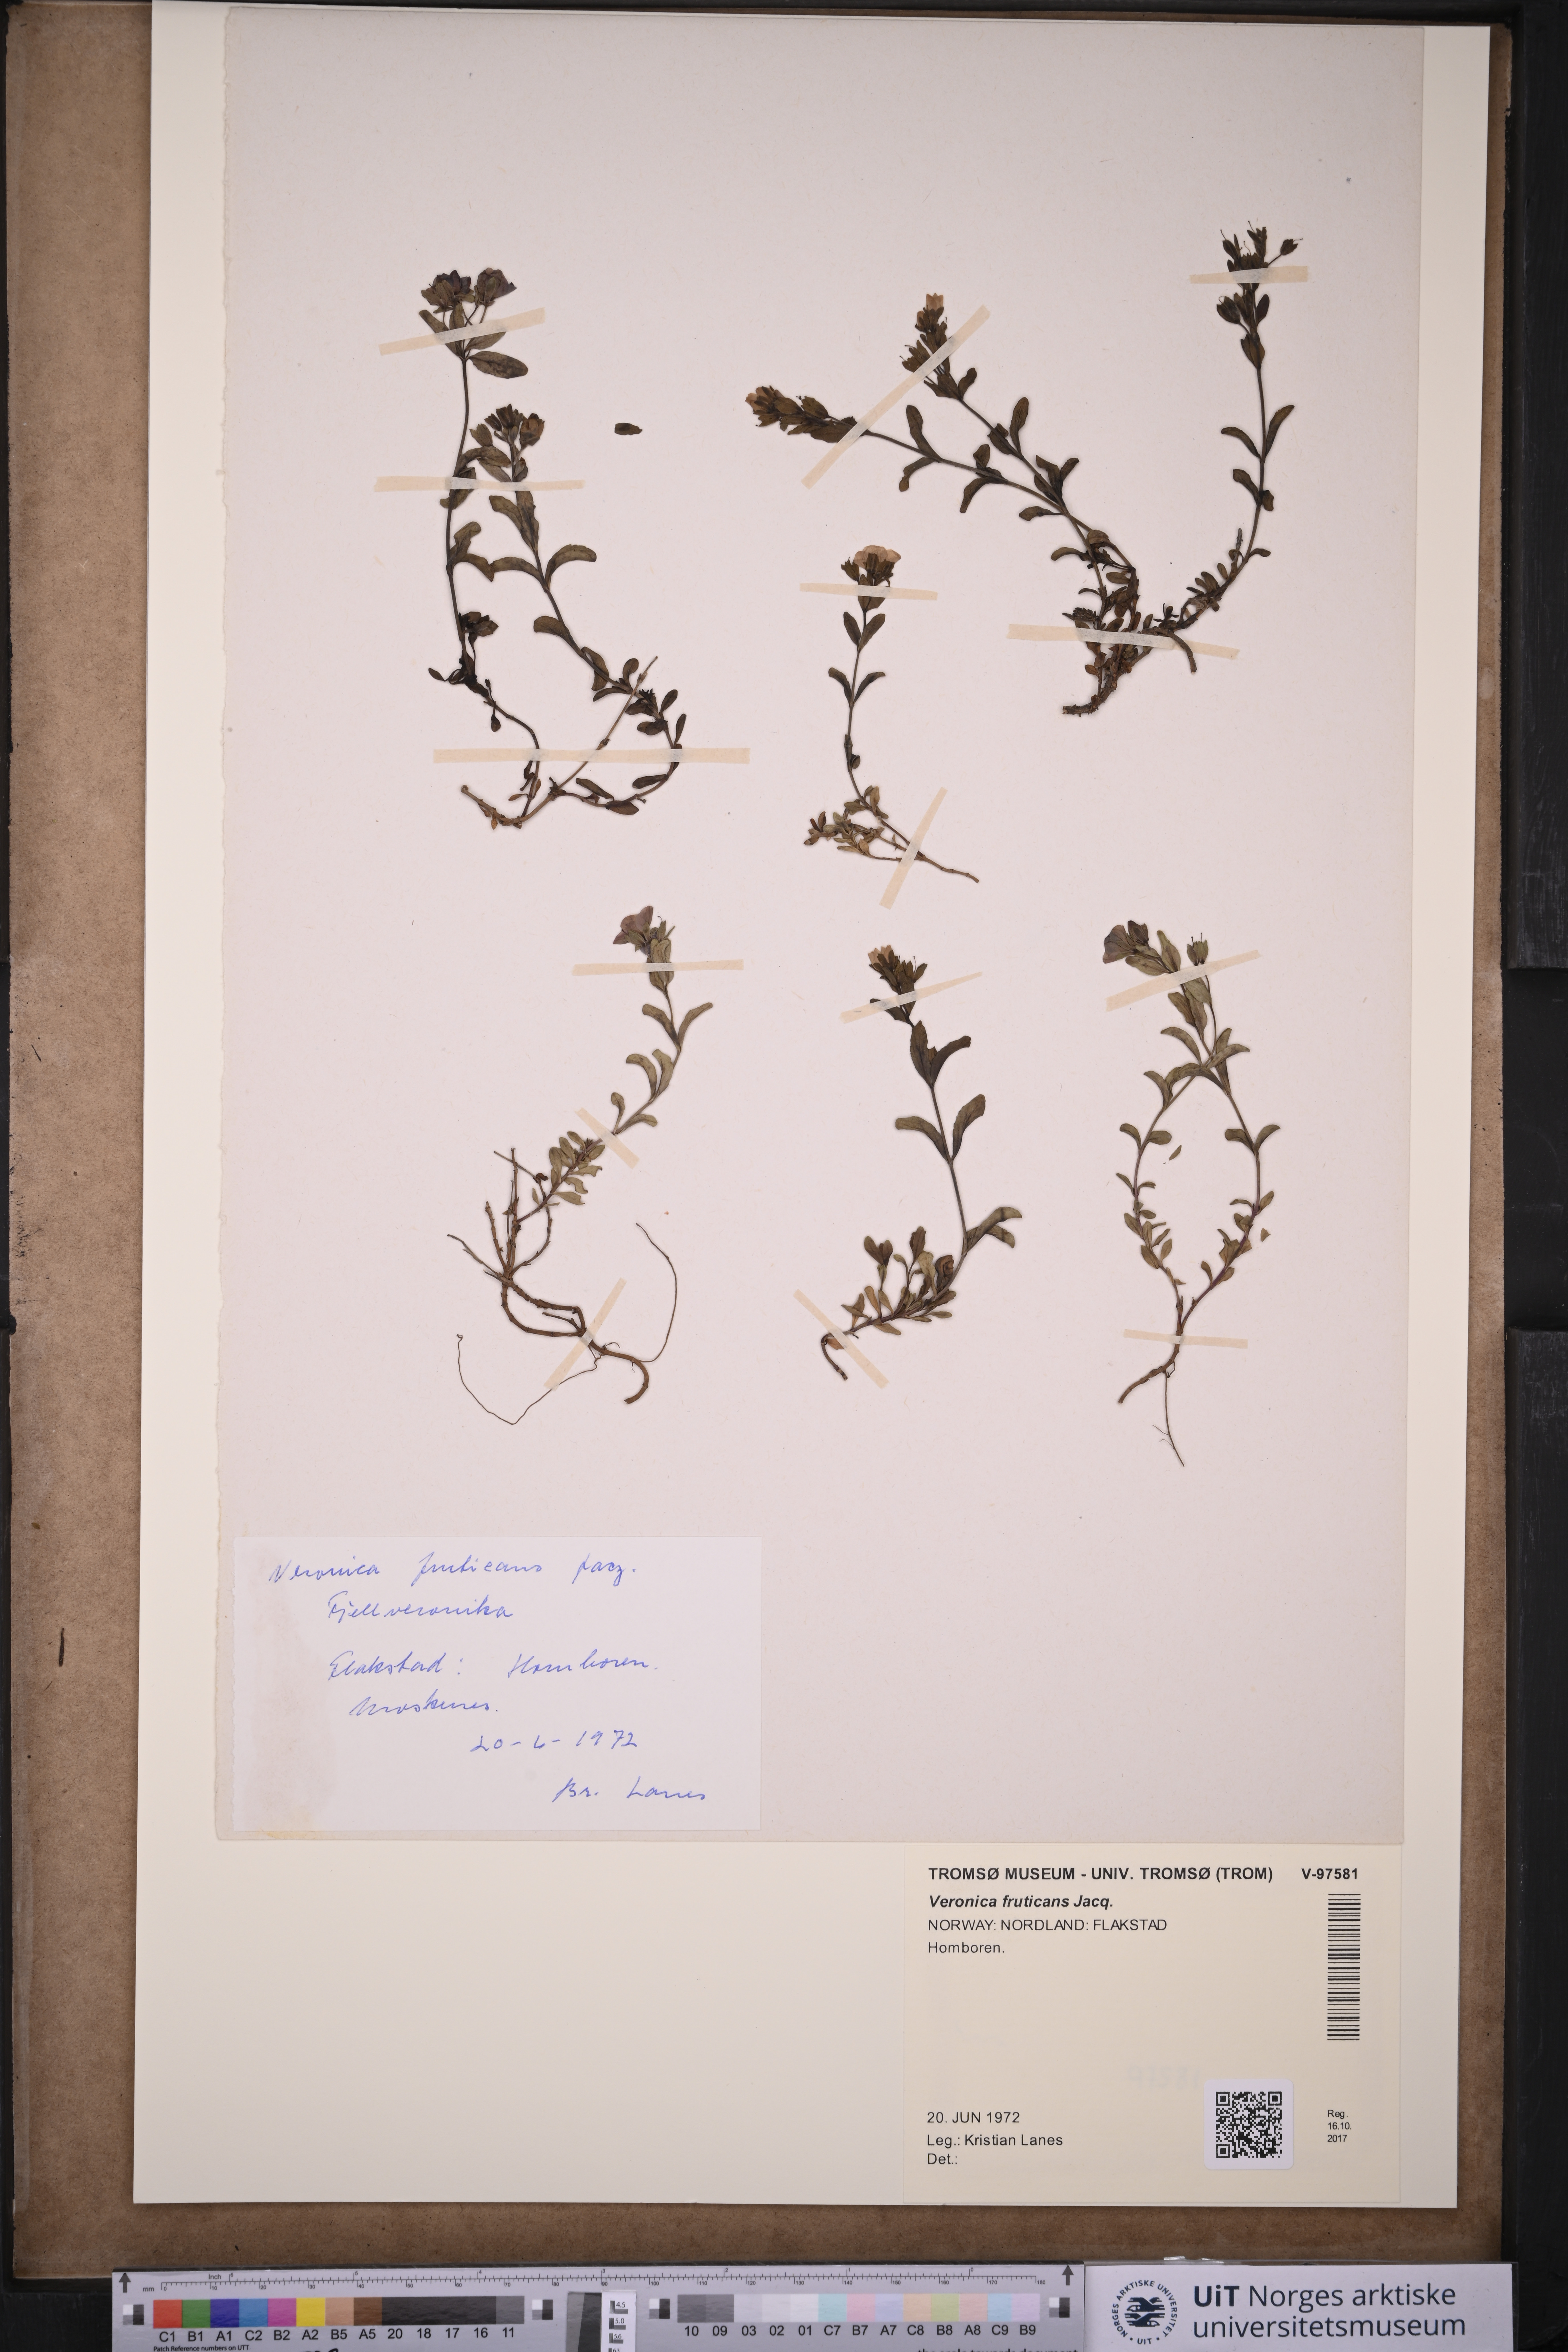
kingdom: Plantae
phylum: Tracheophyta
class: Magnoliopsida
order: Lamiales
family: Plantaginaceae
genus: Veronica
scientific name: Veronica fruticans
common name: Rock speedwell
